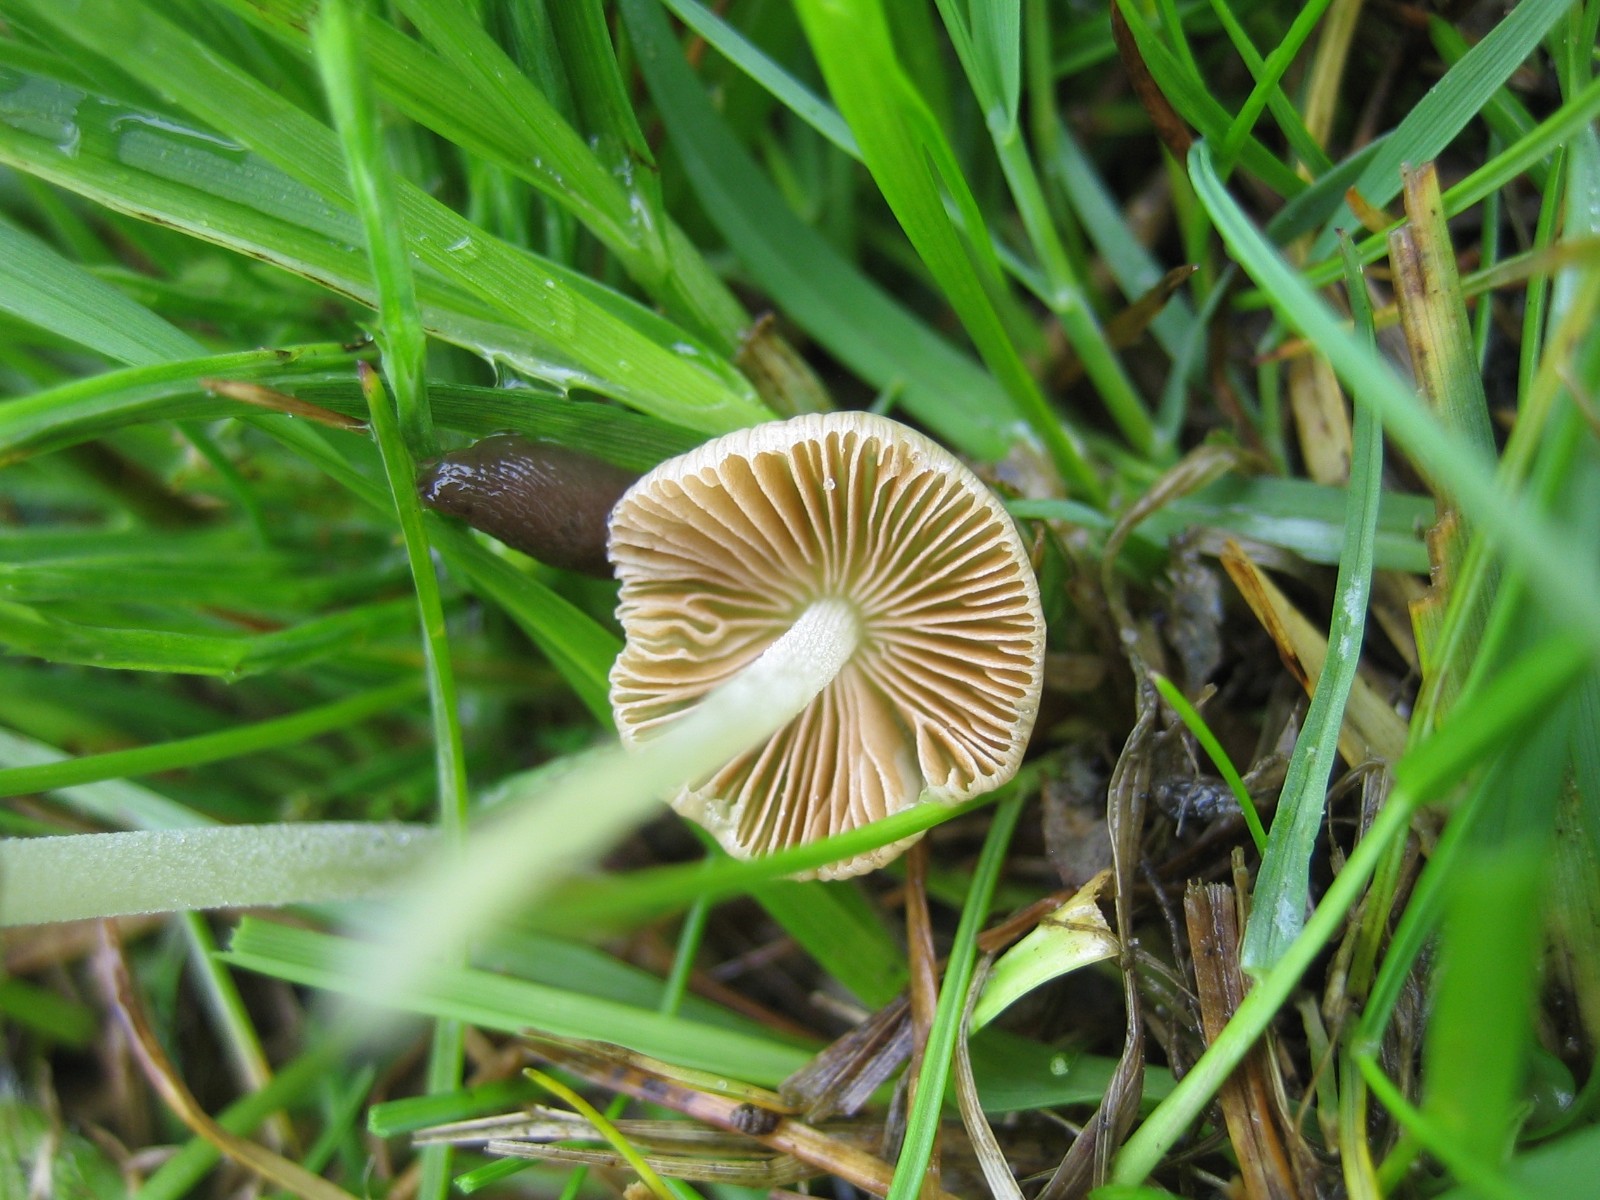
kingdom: Fungi
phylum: Basidiomycota
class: Agaricomycetes
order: Agaricales
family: Bolbitiaceae
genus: Bolbitius
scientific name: Bolbitius titubans
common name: almindelig gulhat
